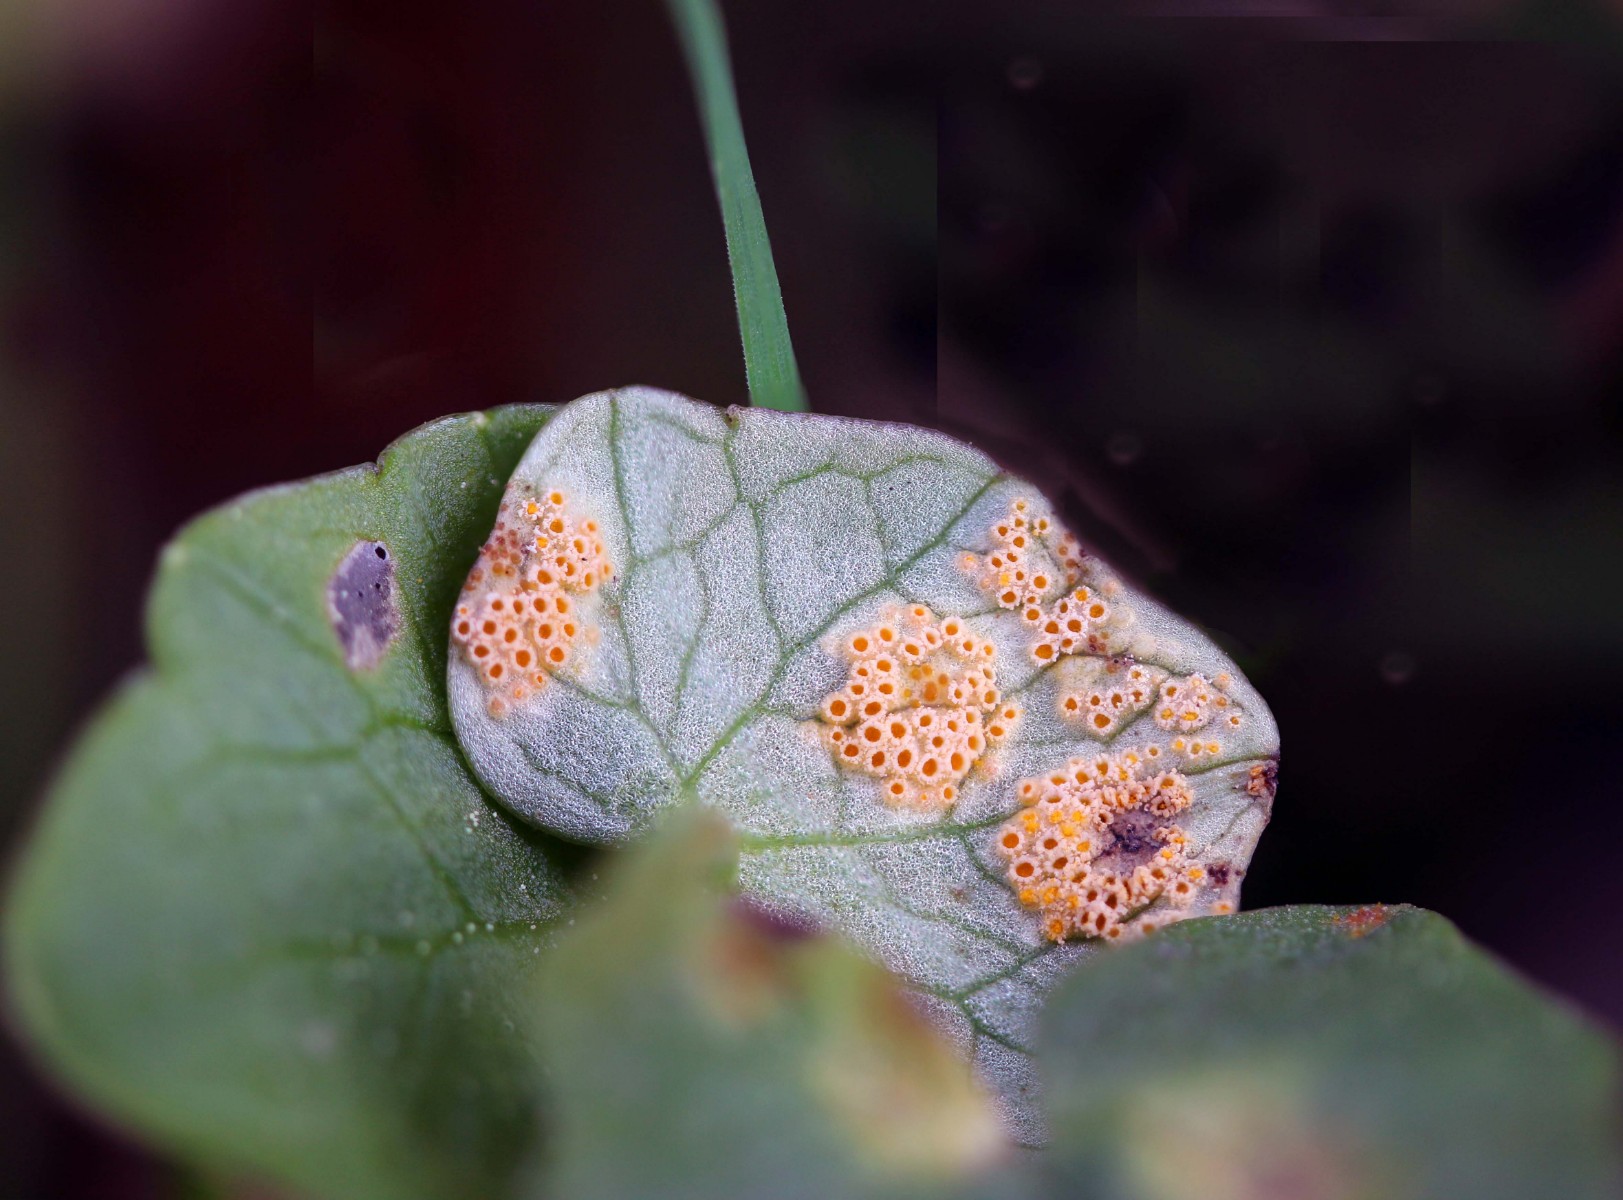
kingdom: Fungi
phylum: Basidiomycota
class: Pucciniomycetes
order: Pucciniales
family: Pucciniaceae
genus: Uromyces
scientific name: Uromyces dactylidis
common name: ranunkel-encellerust
